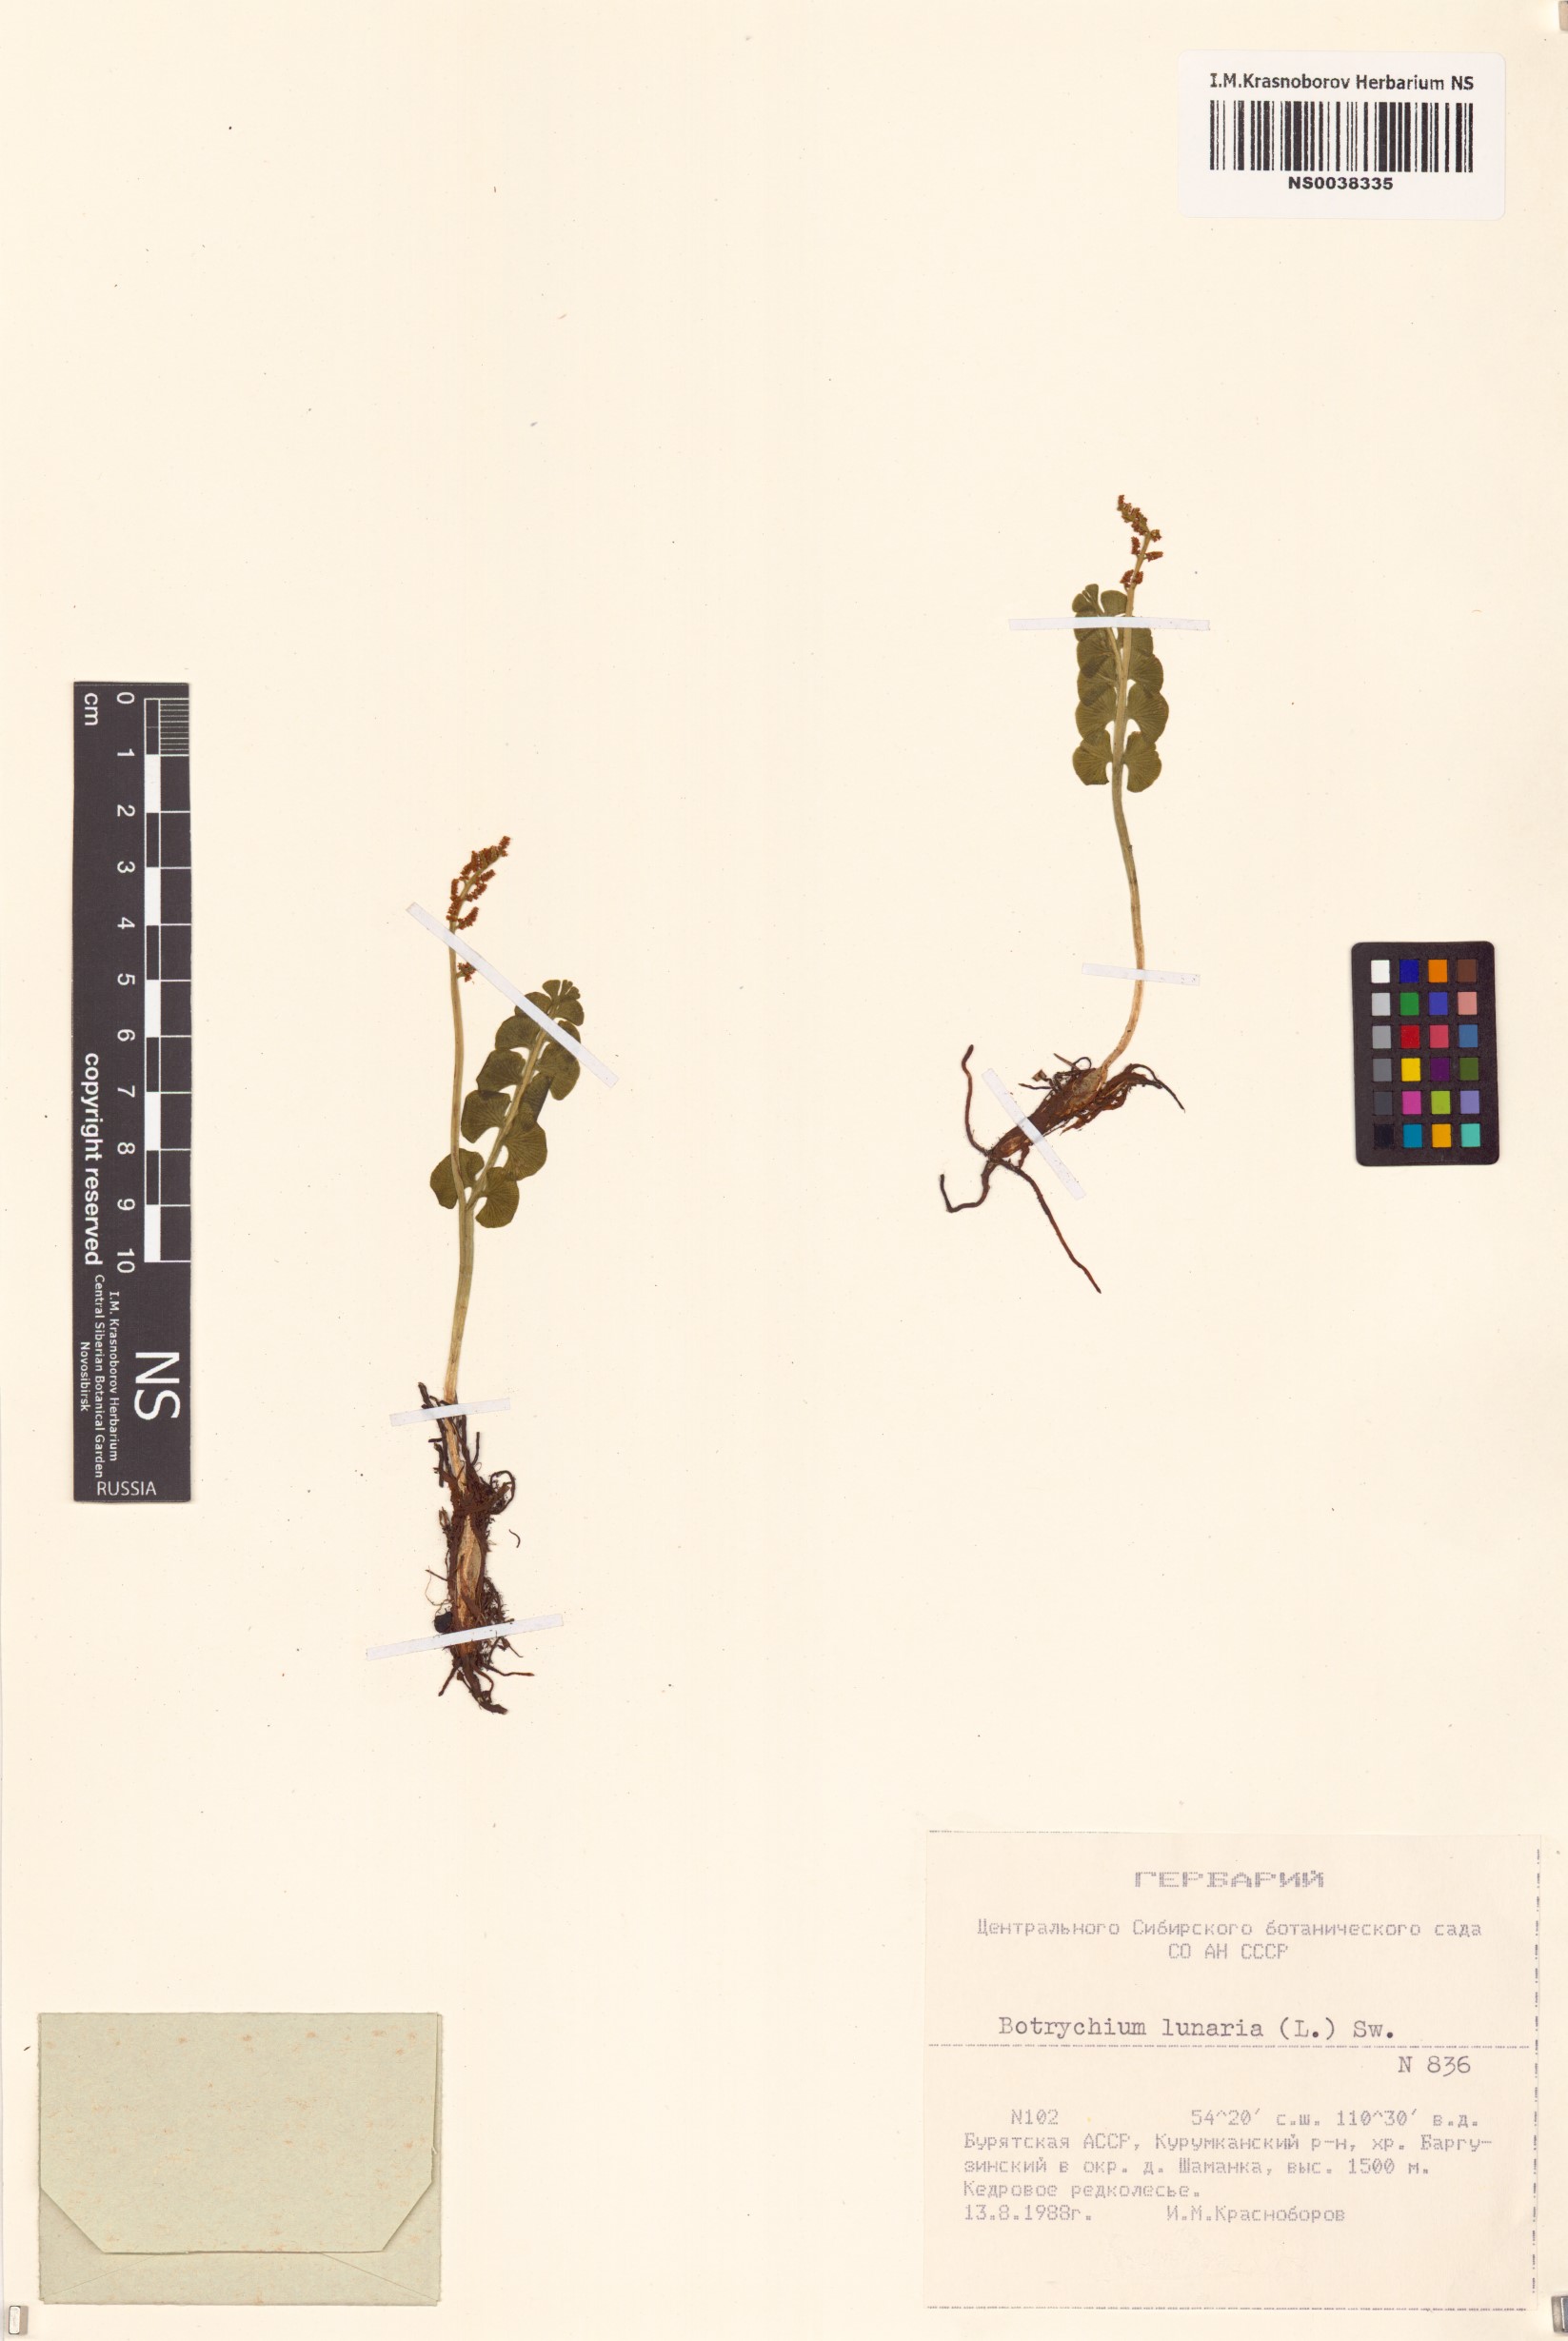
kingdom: Plantae
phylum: Tracheophyta
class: Polypodiopsida
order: Ophioglossales
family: Ophioglossaceae
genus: Botrychium
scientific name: Botrychium lunaria
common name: Moonwort
